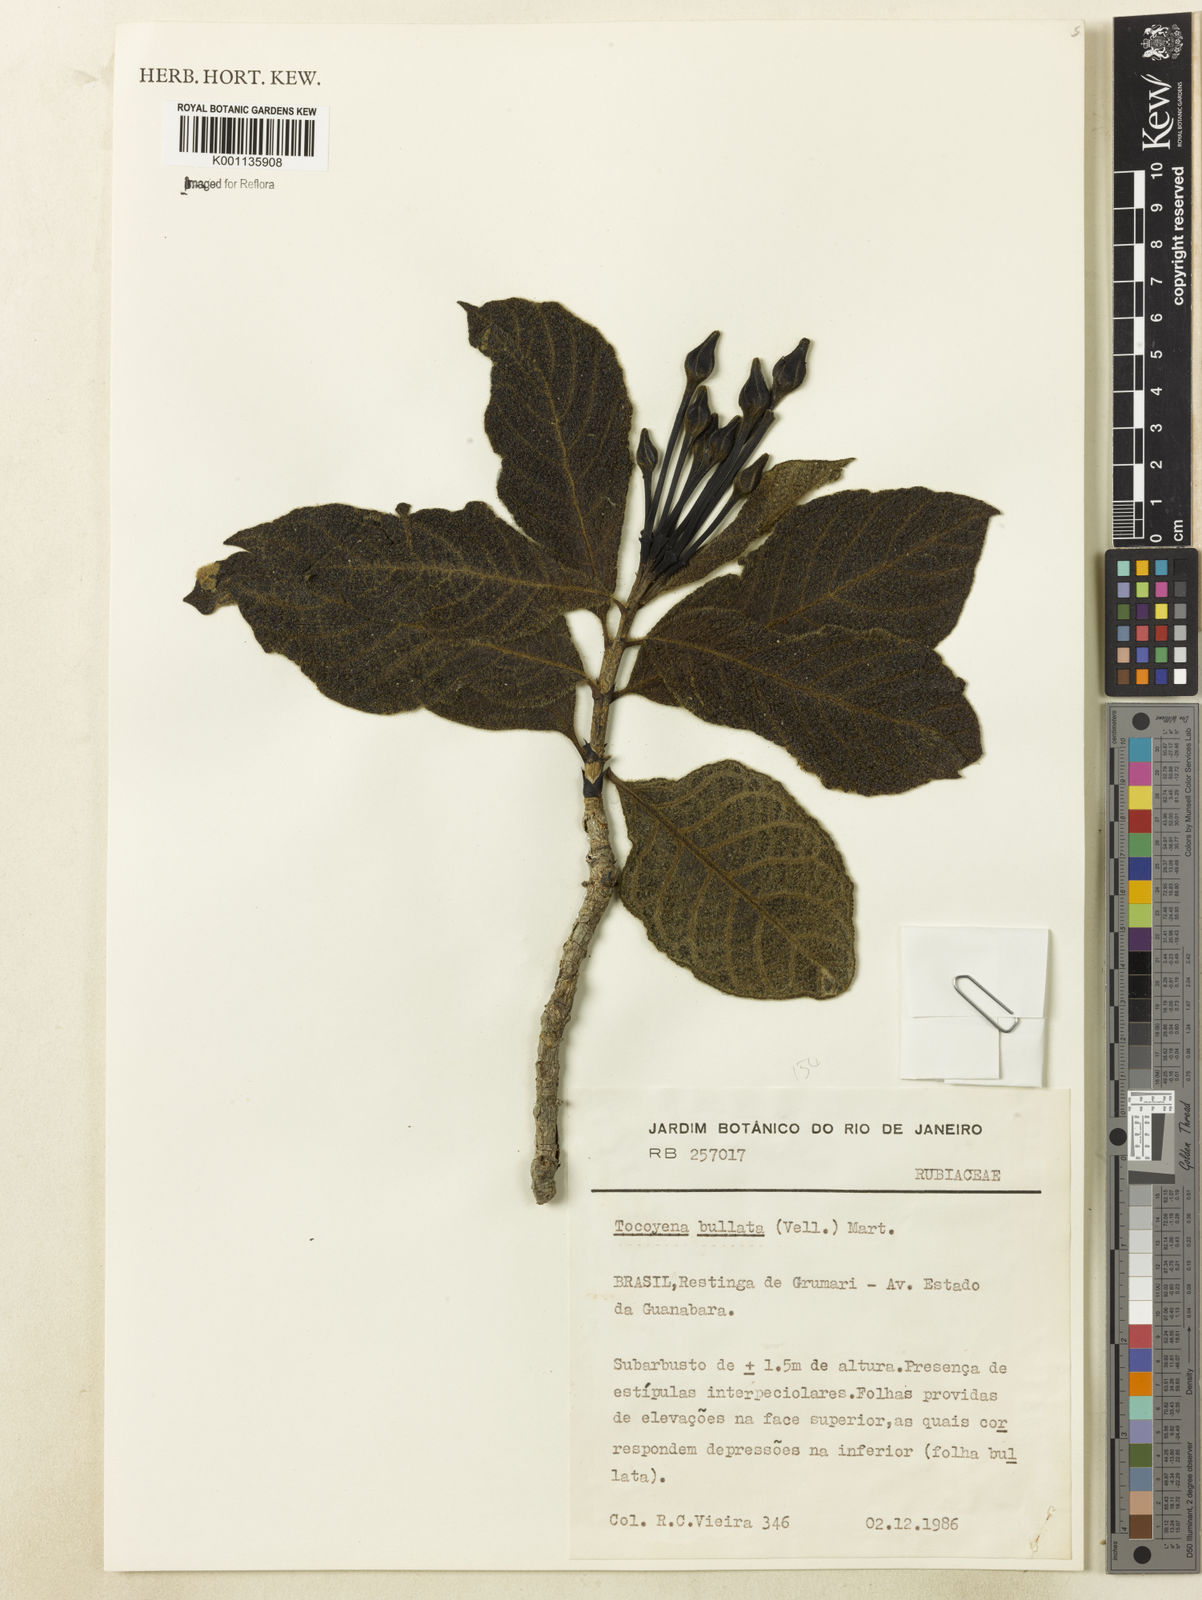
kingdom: Plantae
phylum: Tracheophyta
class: Magnoliopsida
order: Gentianales
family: Rubiaceae
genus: Tocoyena
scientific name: Tocoyena bullata
